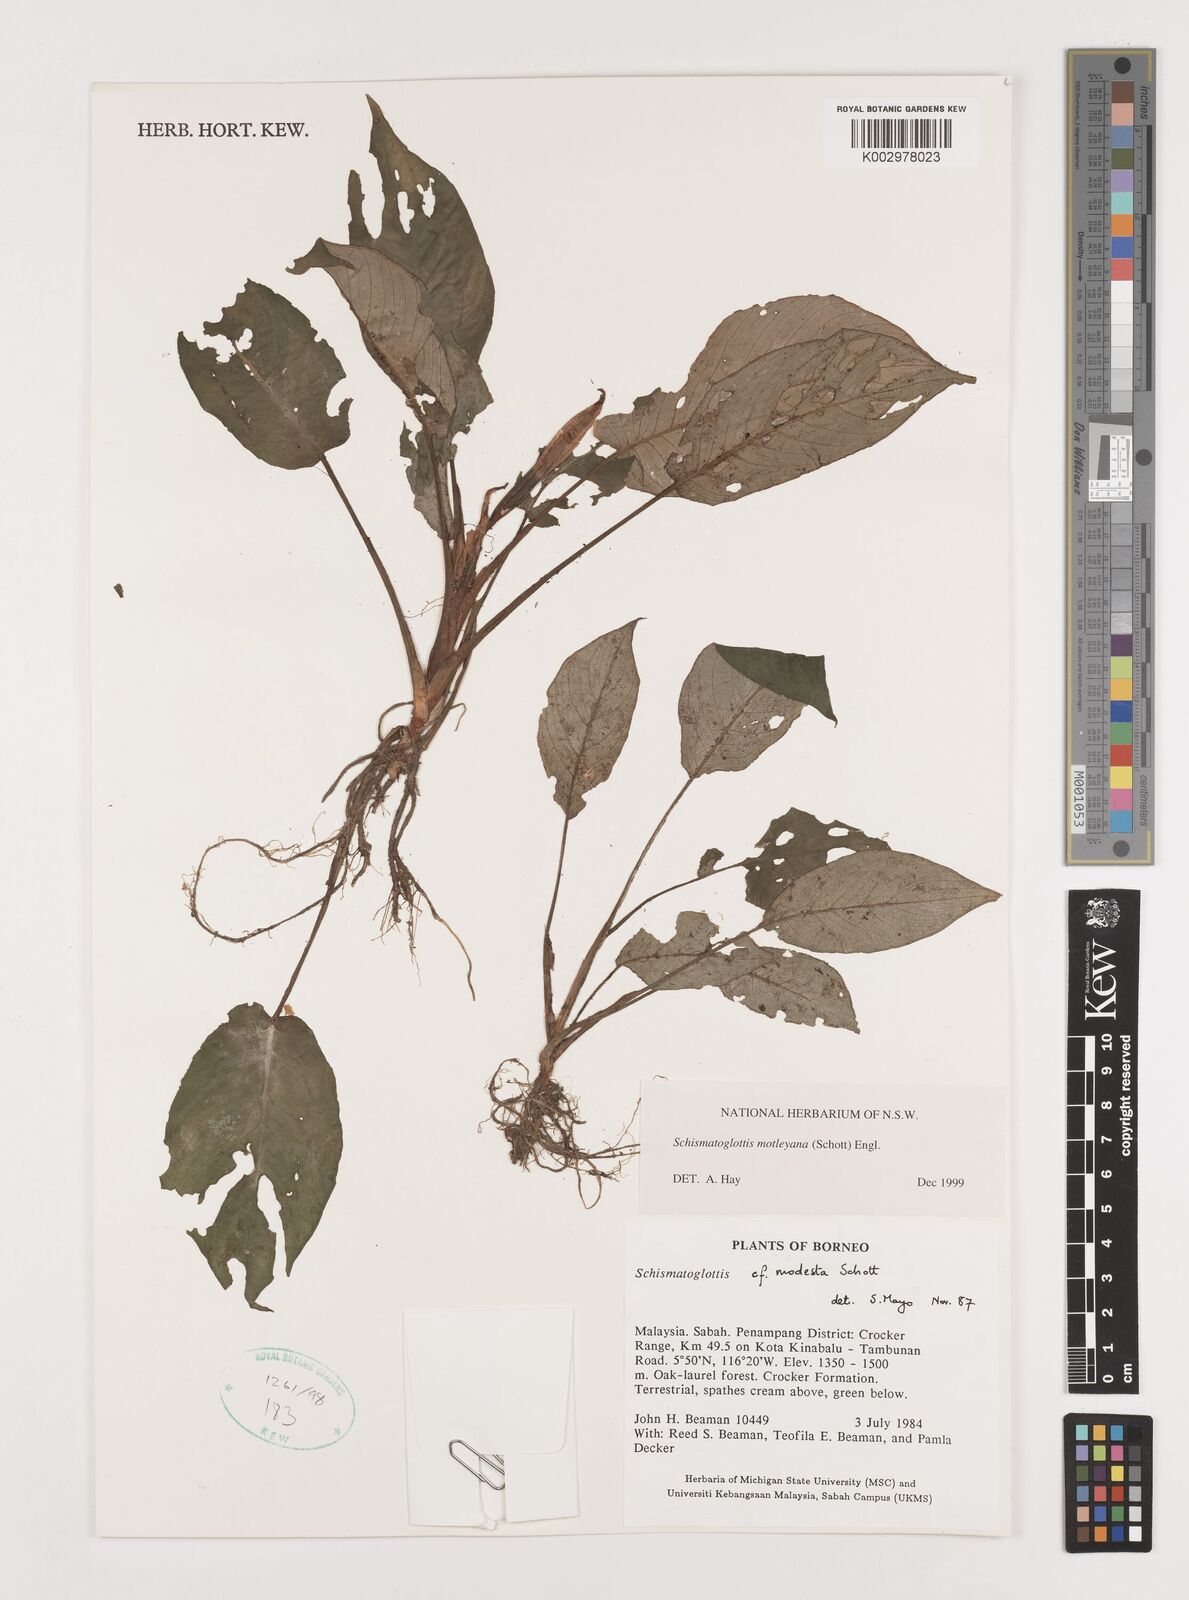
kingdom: Plantae
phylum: Tracheophyta
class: Liliopsida
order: Alismatales
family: Araceae
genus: Schismatoglottis
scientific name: Schismatoglottis motleyana
